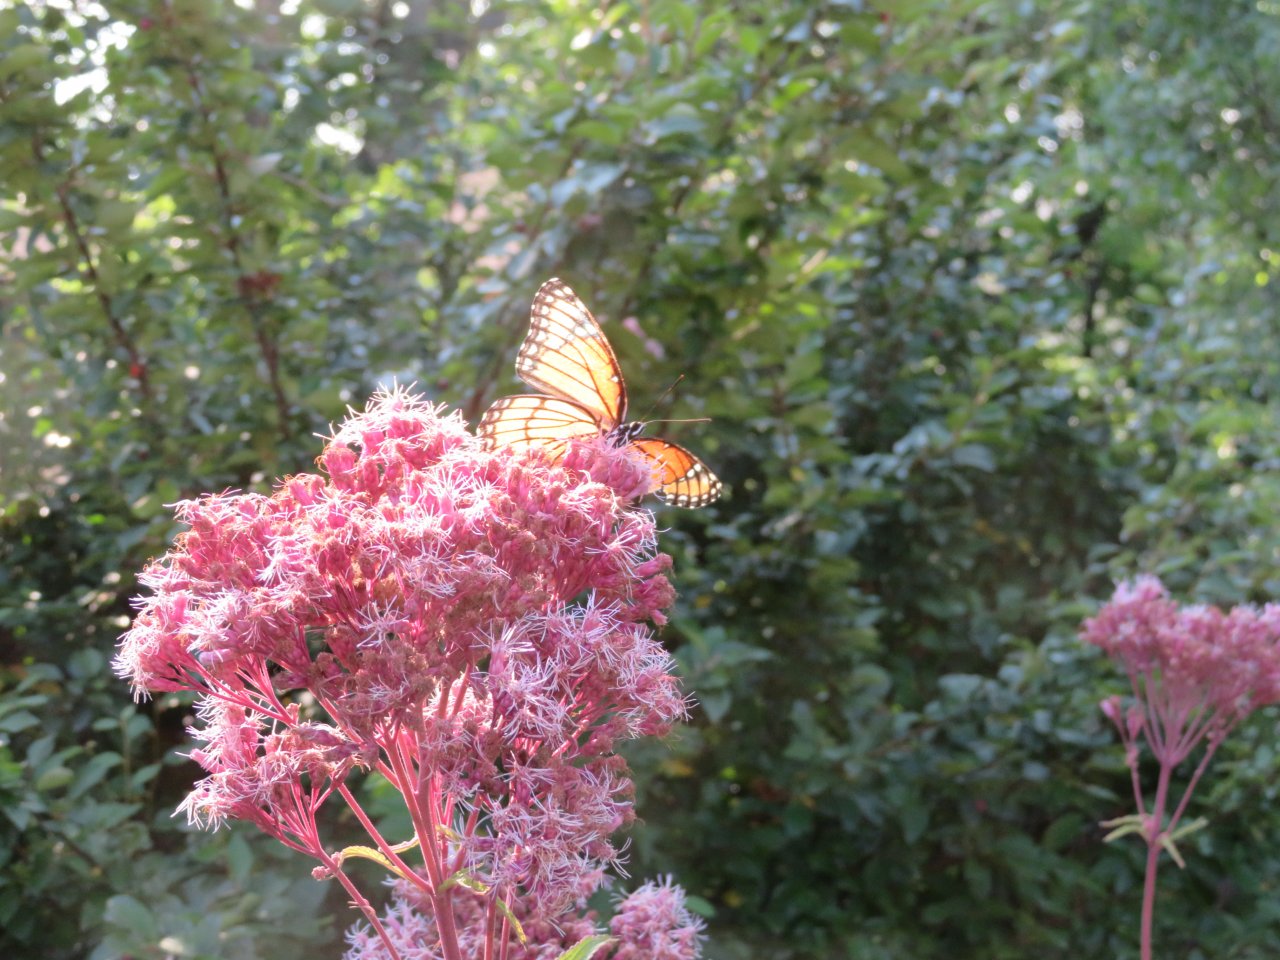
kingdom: Animalia
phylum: Arthropoda
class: Insecta
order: Lepidoptera
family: Nymphalidae
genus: Limenitis
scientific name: Limenitis archippus
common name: Viceroy
